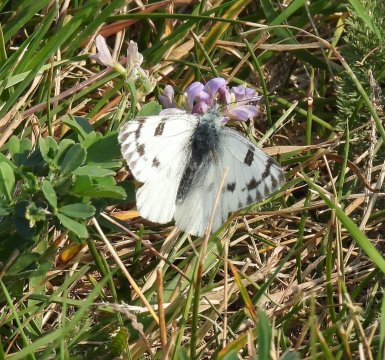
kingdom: Animalia
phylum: Arthropoda
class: Insecta
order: Lepidoptera
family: Pieridae
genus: Pontia
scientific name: Pontia occidentalis
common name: Western White
